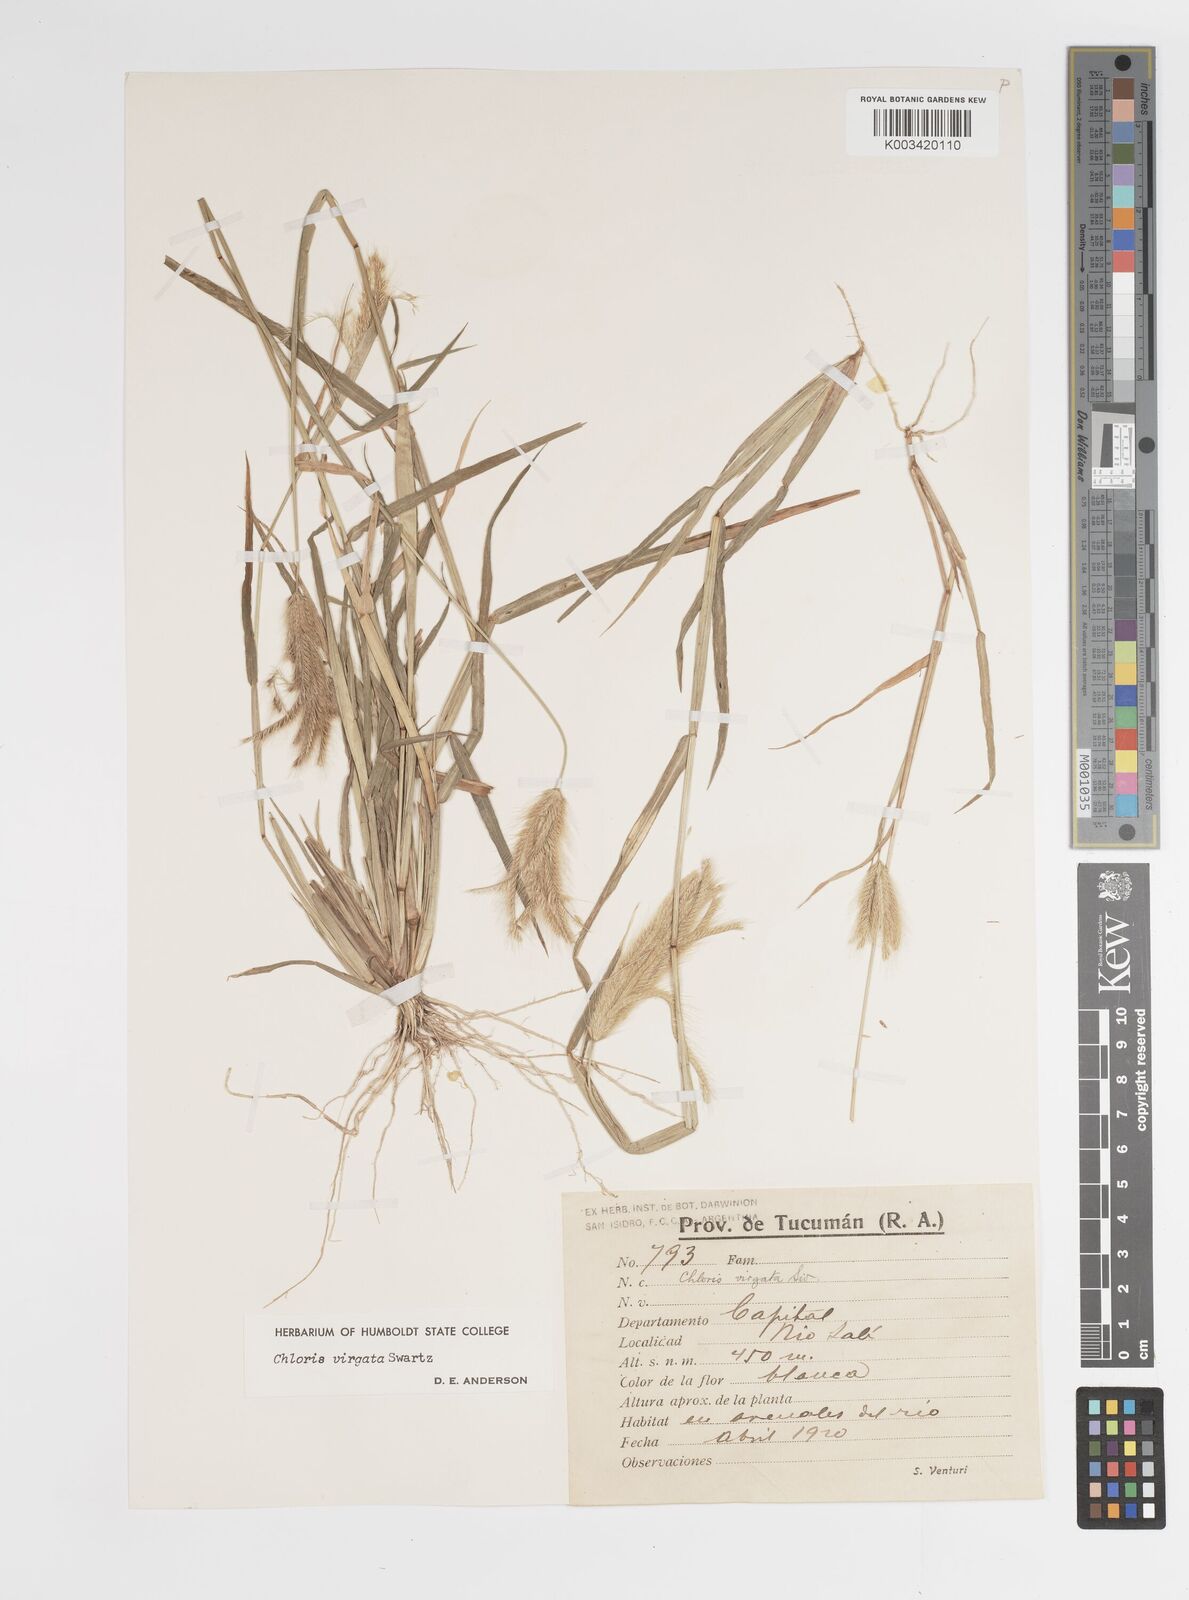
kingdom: Plantae
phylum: Tracheophyta
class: Liliopsida
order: Poales
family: Poaceae
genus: Chloris
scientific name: Chloris virgata
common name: Feathery rhodes-grass
